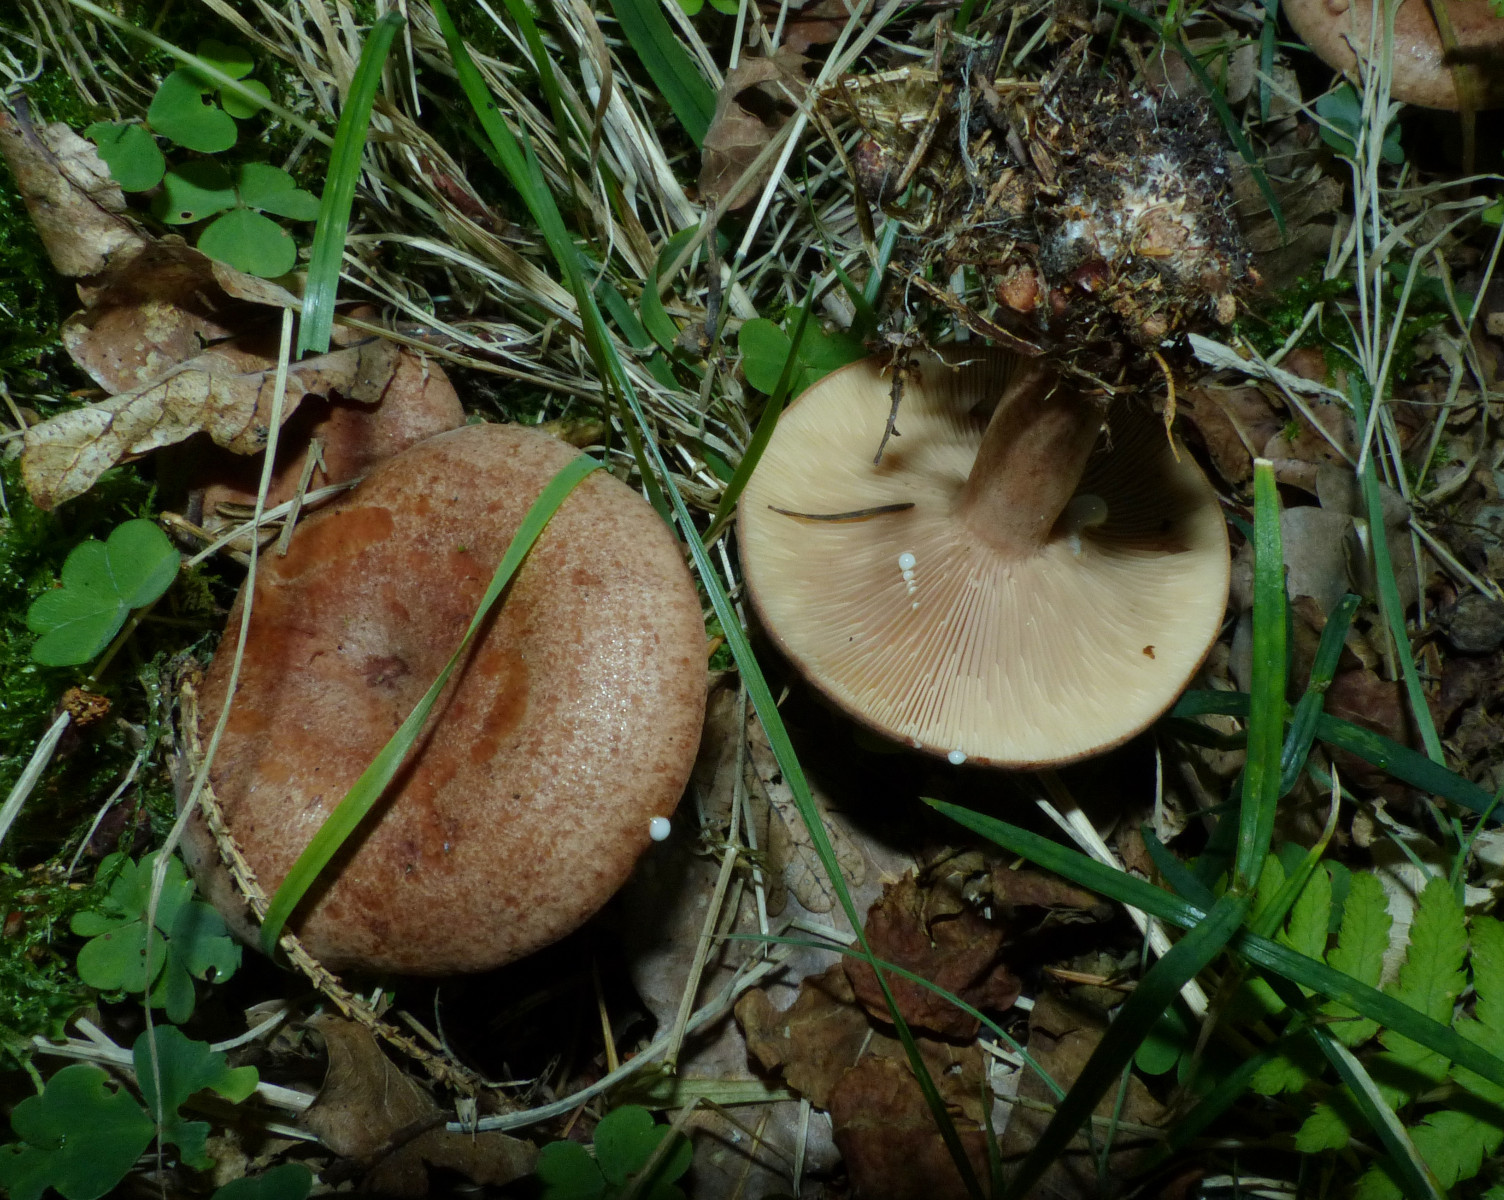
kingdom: Fungi
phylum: Basidiomycota
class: Agaricomycetes
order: Russulales
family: Russulaceae
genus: Lactarius
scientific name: Lactarius quietus
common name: ege-mælkehat
